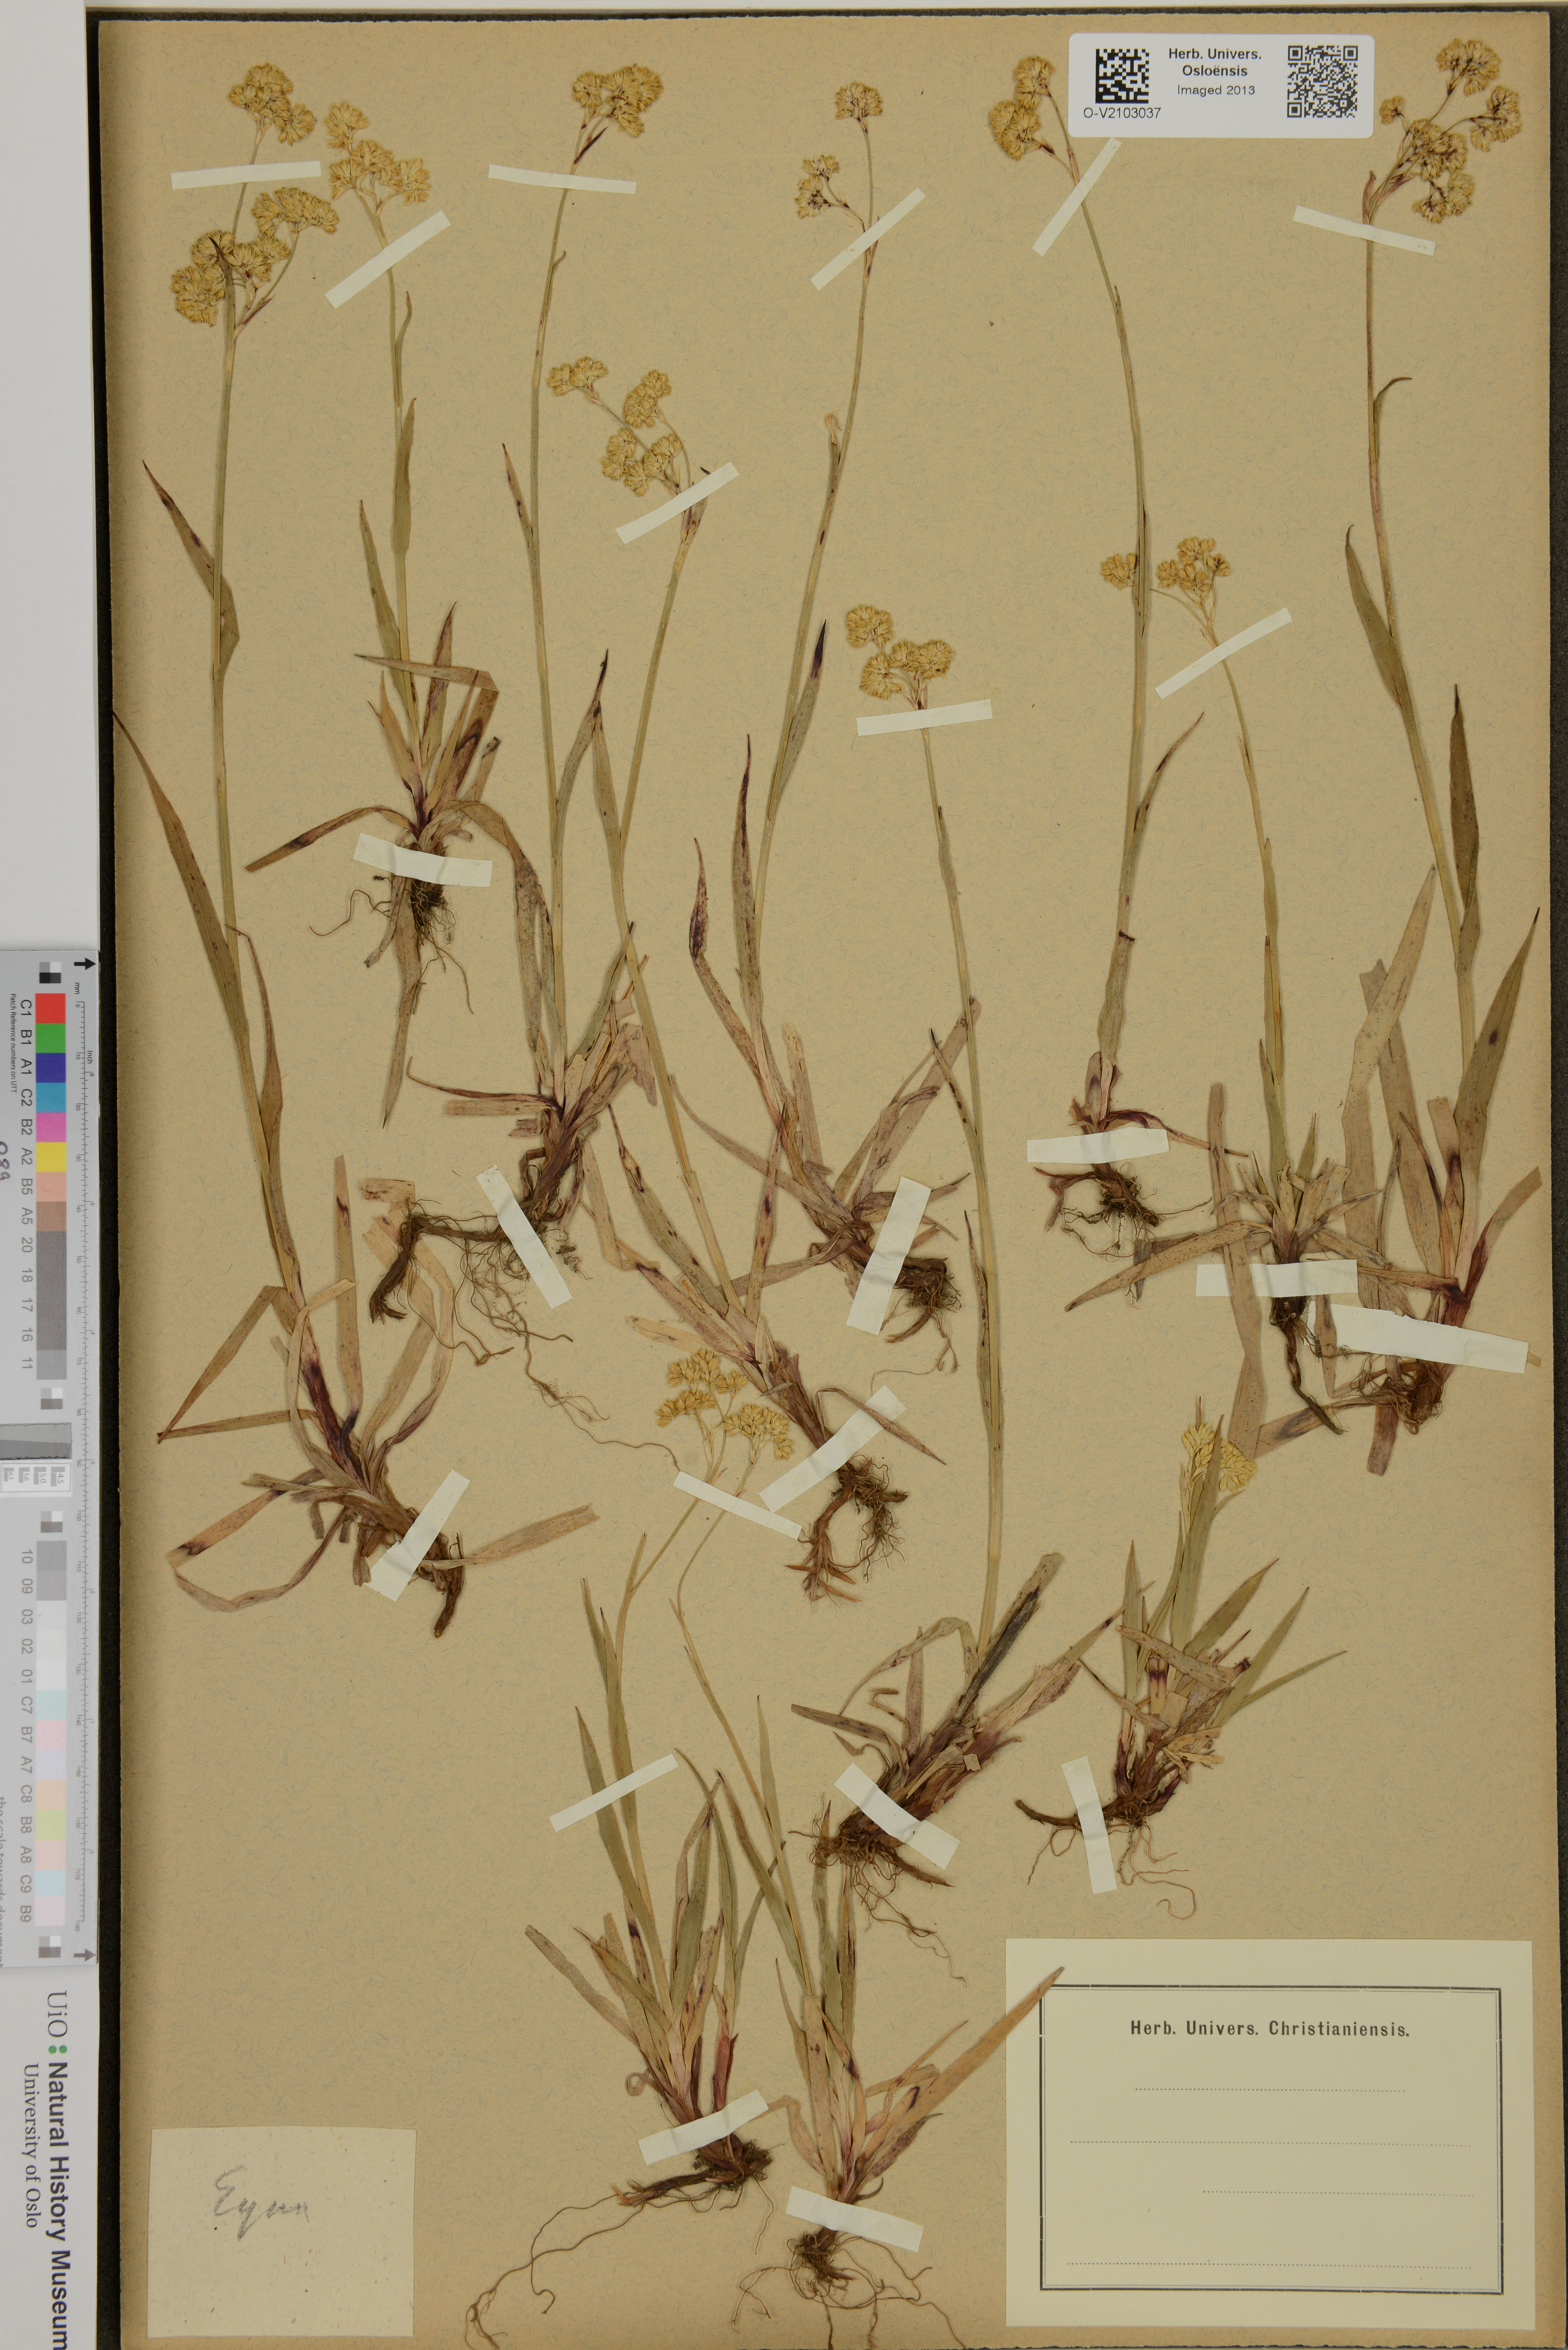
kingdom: Plantae
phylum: Tracheophyta
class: Liliopsida
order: Poales
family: Juncaceae
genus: Luzula
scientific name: Luzula
